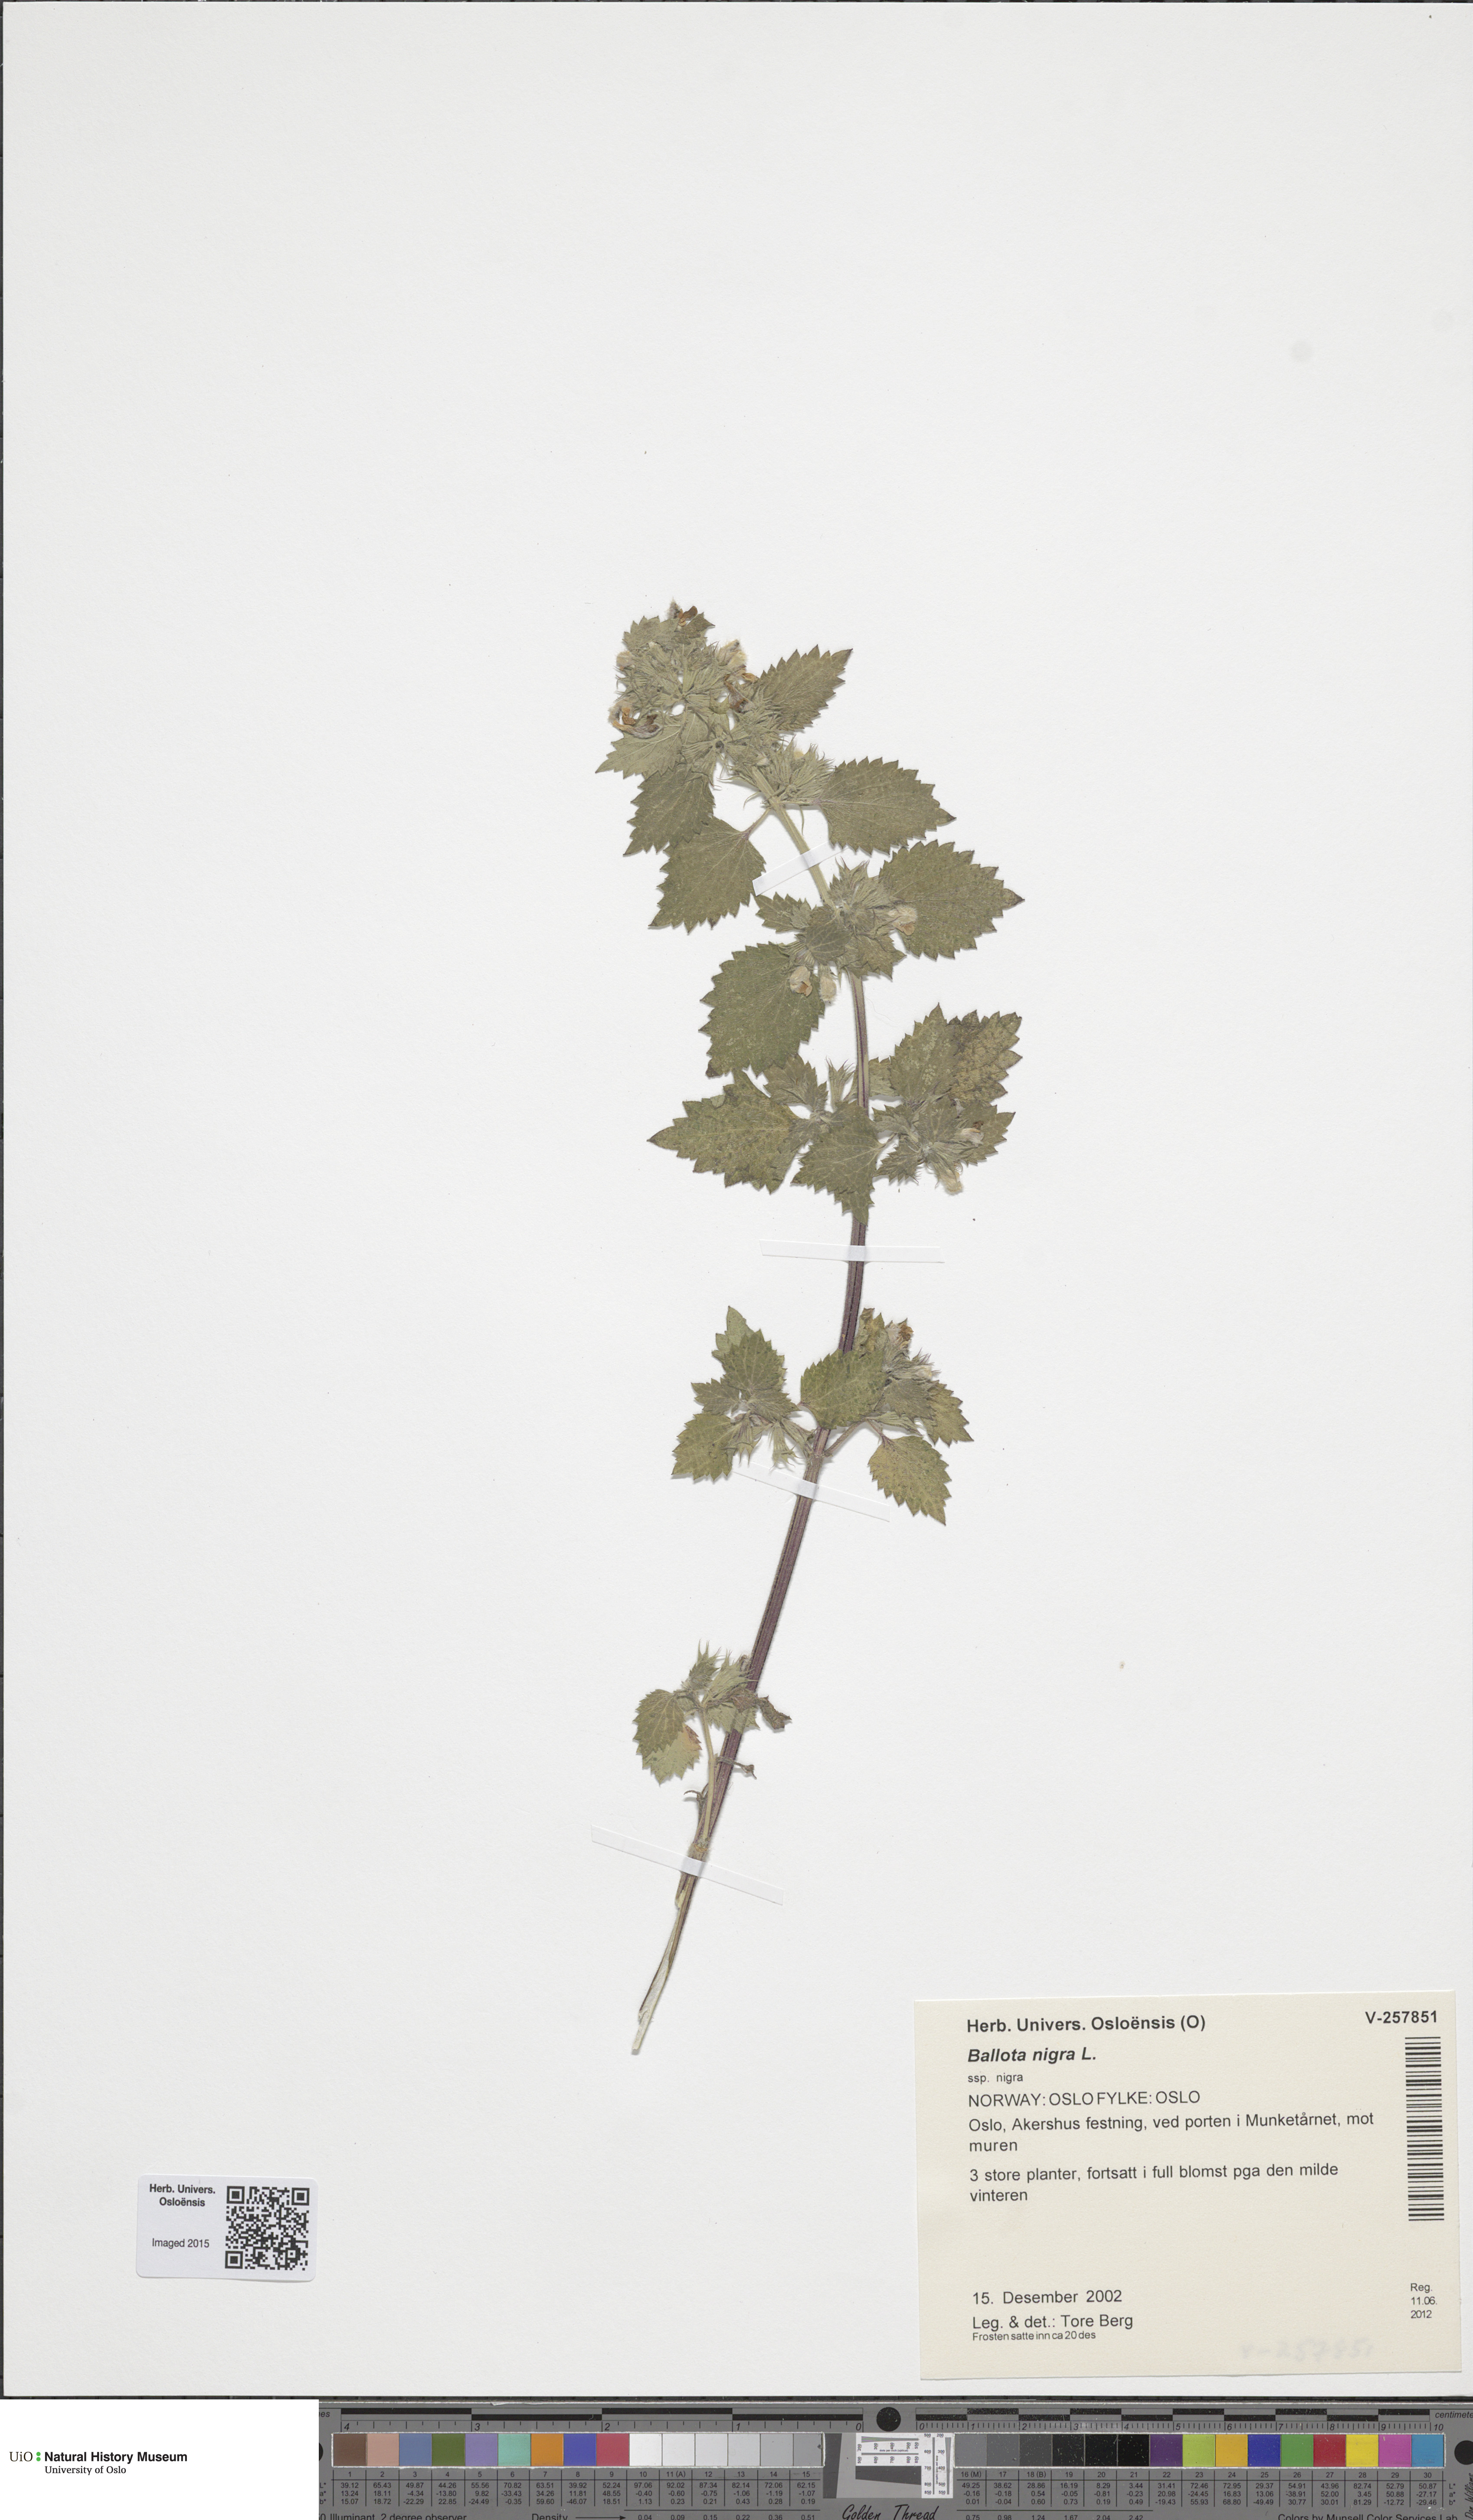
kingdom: Plantae
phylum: Tracheophyta
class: Magnoliopsida
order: Lamiales
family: Lamiaceae
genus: Ballota
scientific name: Ballota nigra
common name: Black horehound
